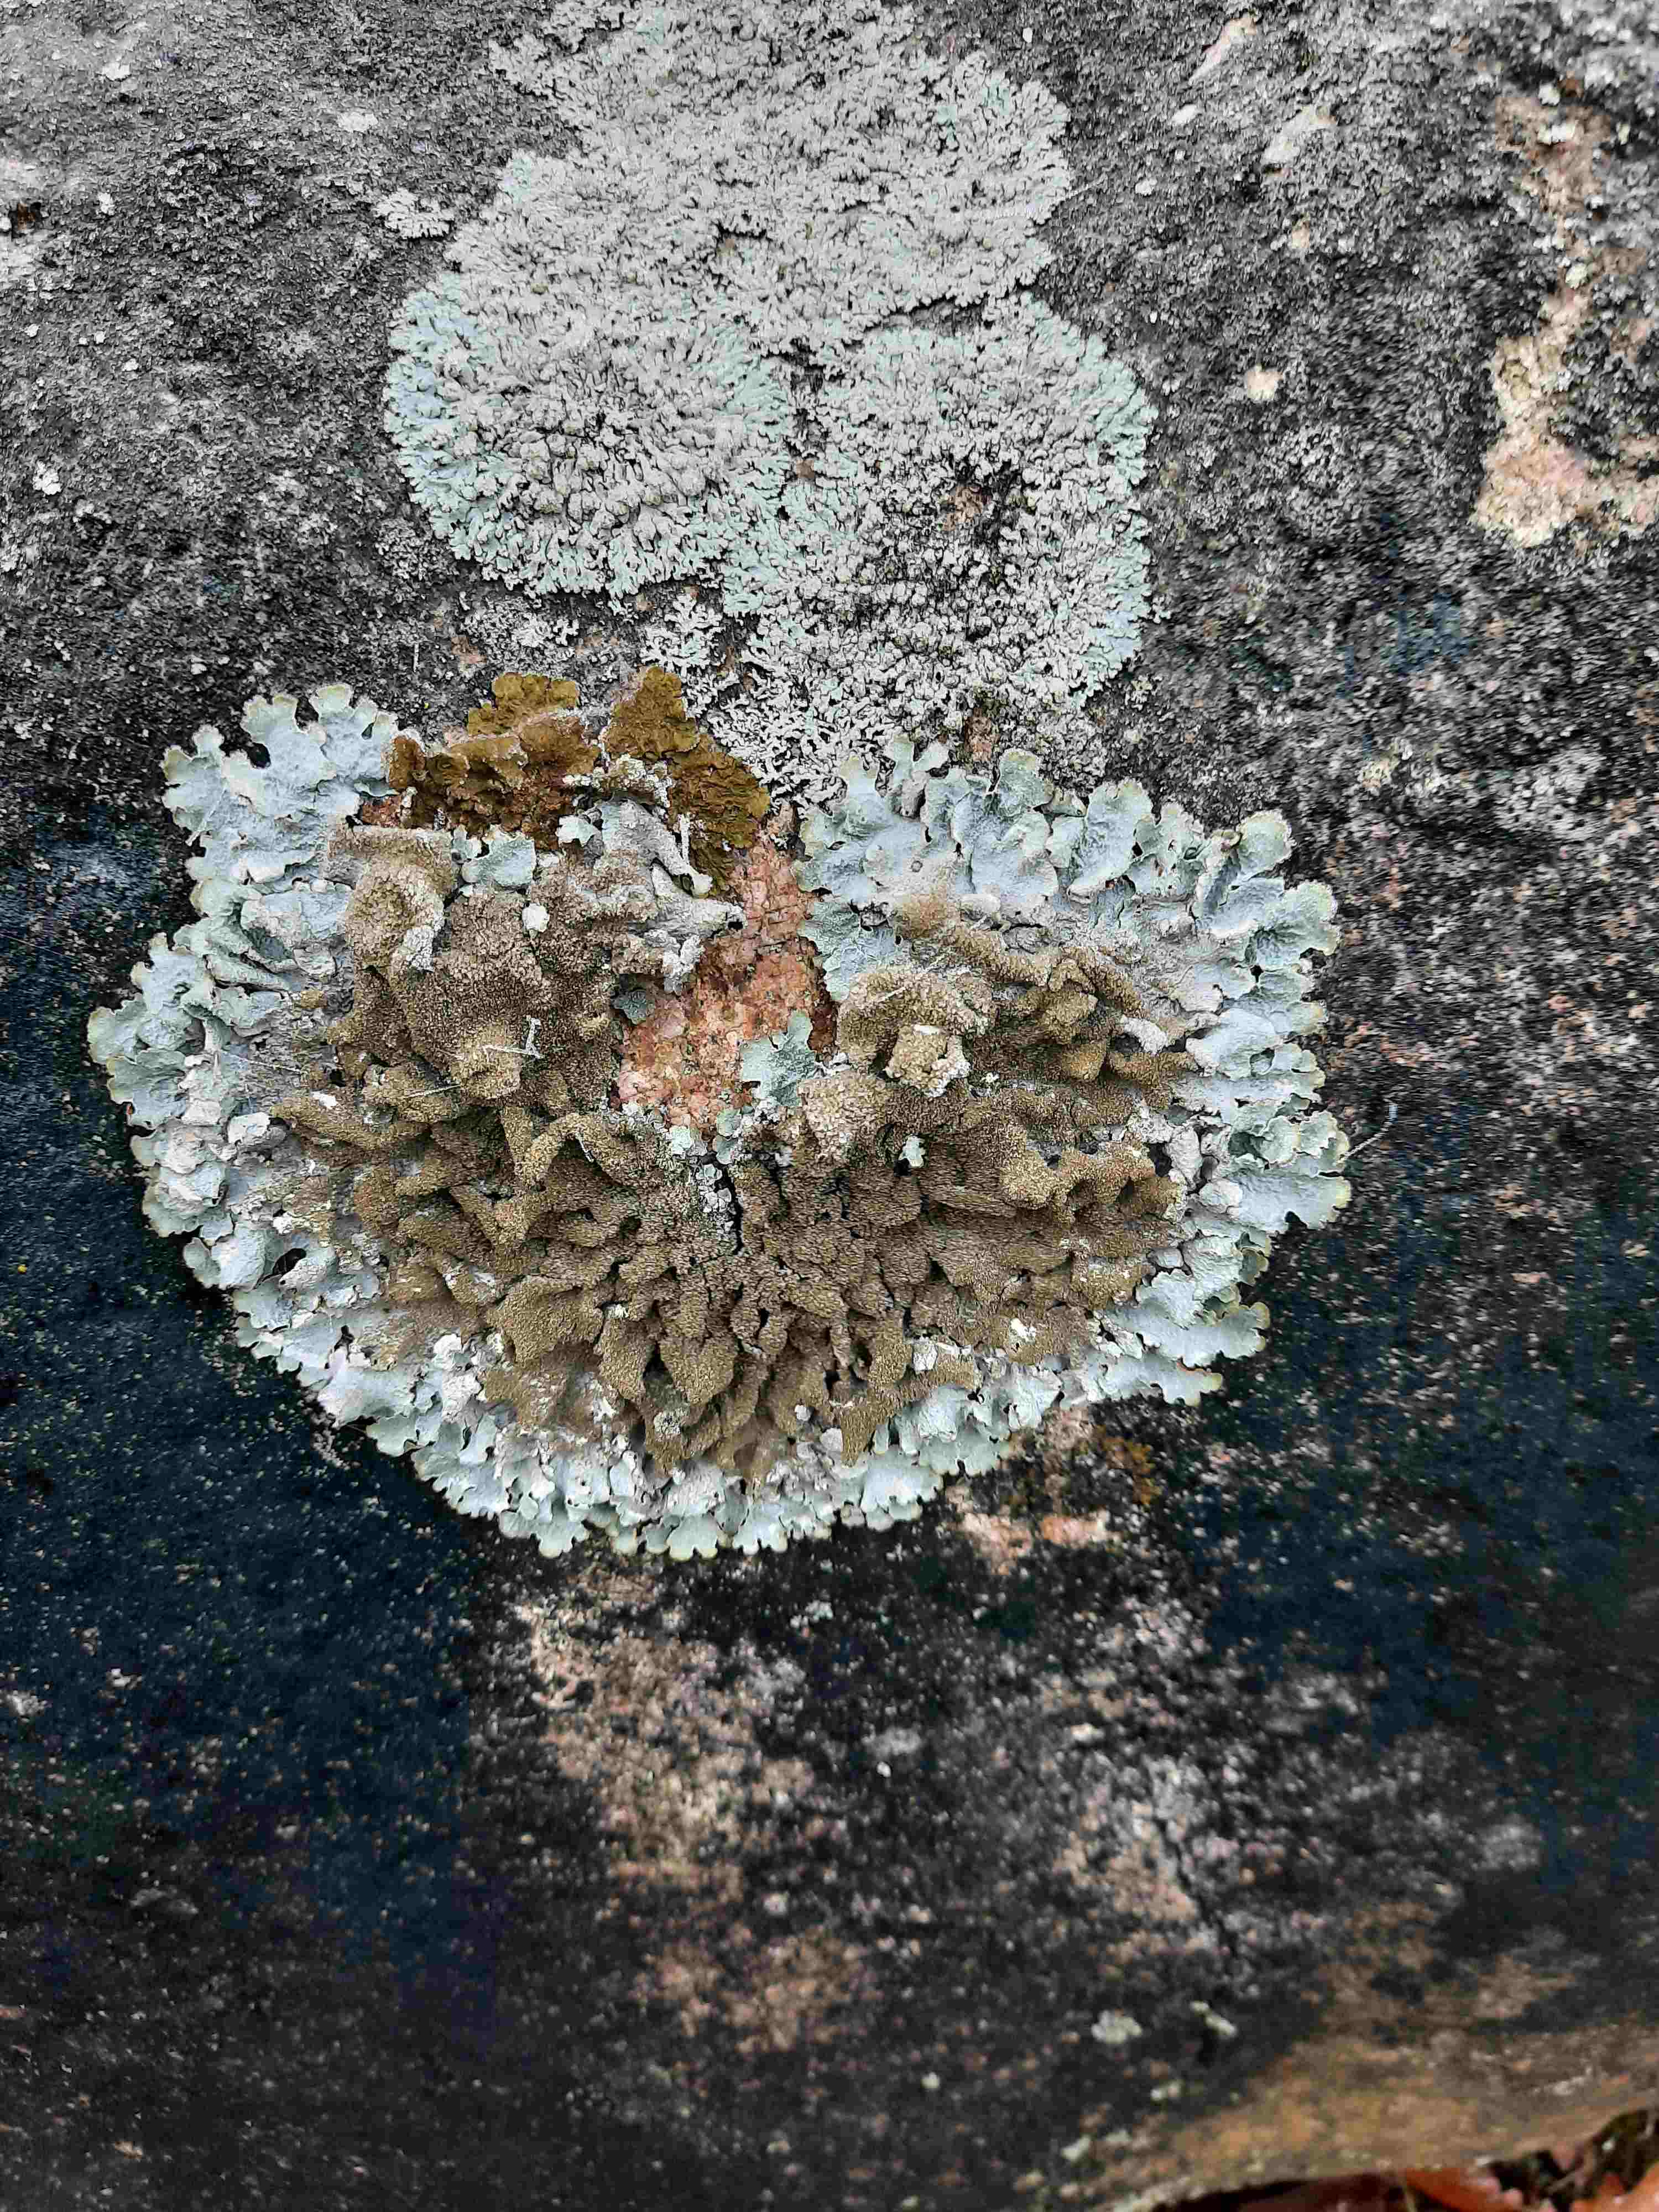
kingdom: Fungi
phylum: Ascomycota
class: Lecanoromycetes
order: Lecanorales
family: Parmeliaceae
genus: Parmelia
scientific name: Parmelia
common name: farve-skållav
